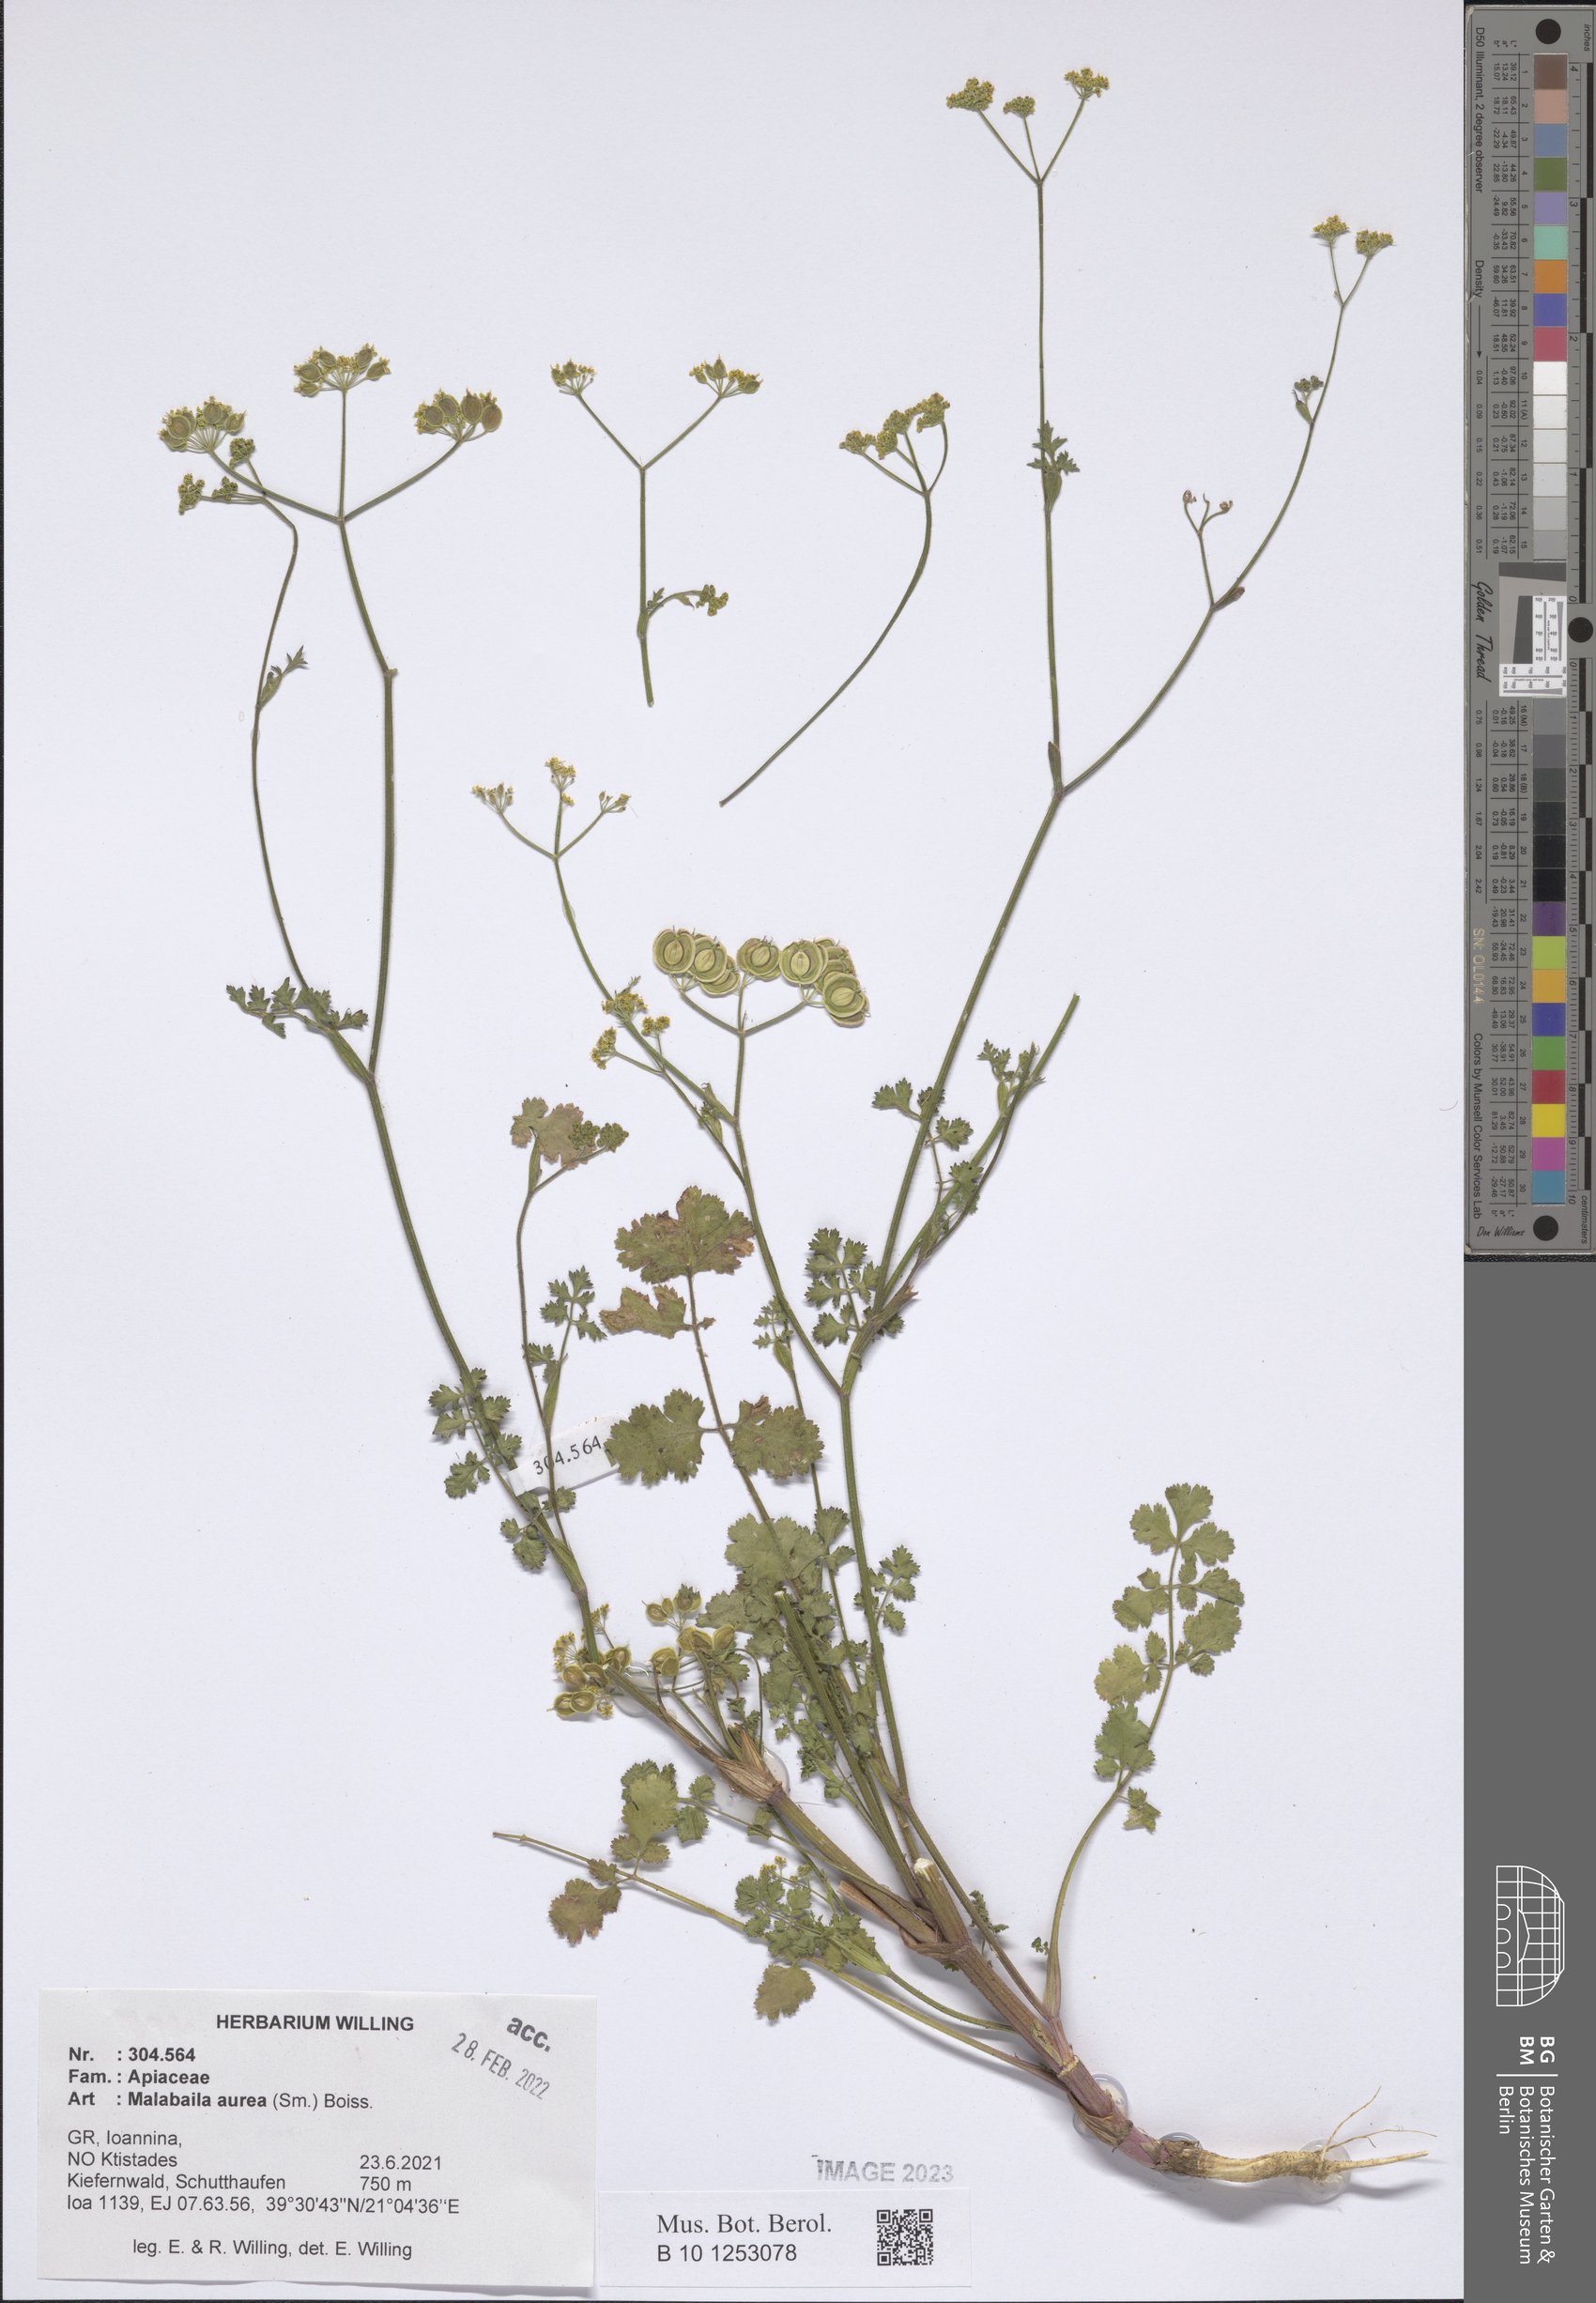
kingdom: Plantae
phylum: Tracheophyta
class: Magnoliopsida
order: Apiales
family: Apiaceae
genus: Leiotulus
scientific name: Leiotulus aureus
